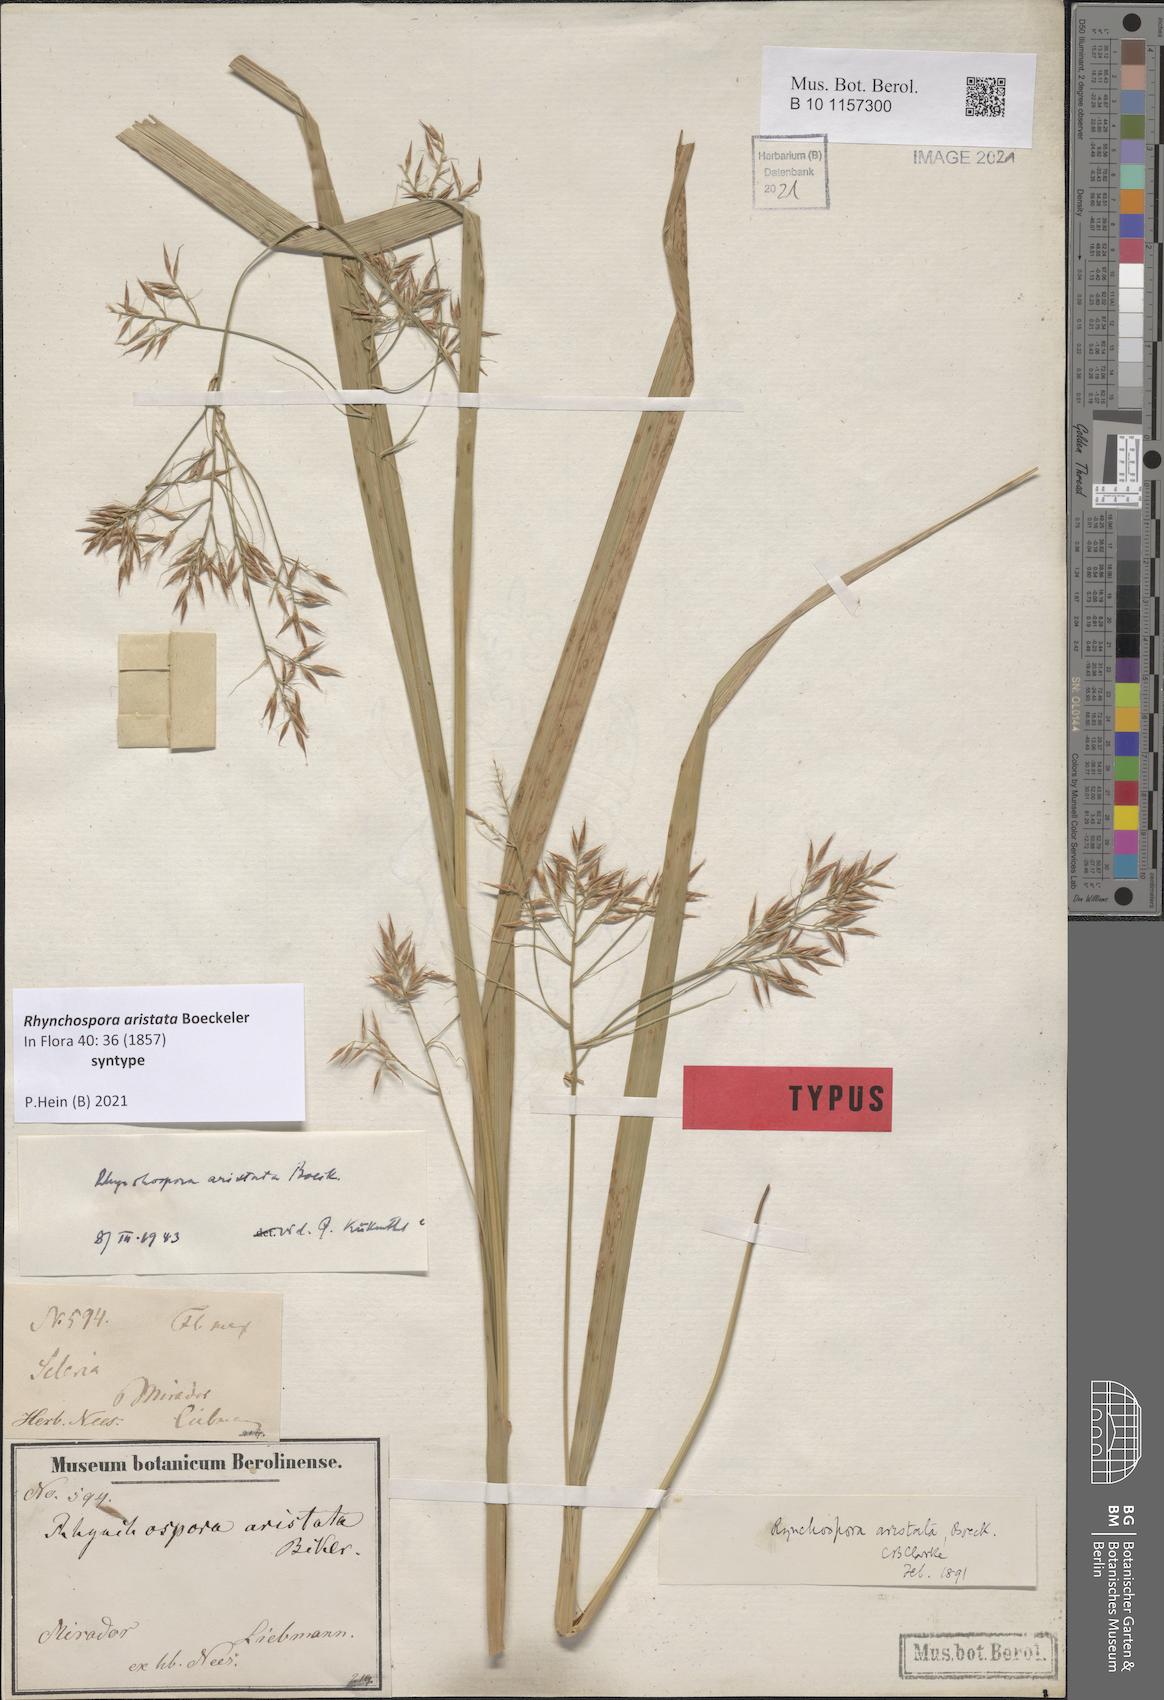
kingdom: Plantae
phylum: Tracheophyta
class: Liliopsida
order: Poales
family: Cyperaceae
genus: Rhynchospora
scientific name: Rhynchospora aristata
